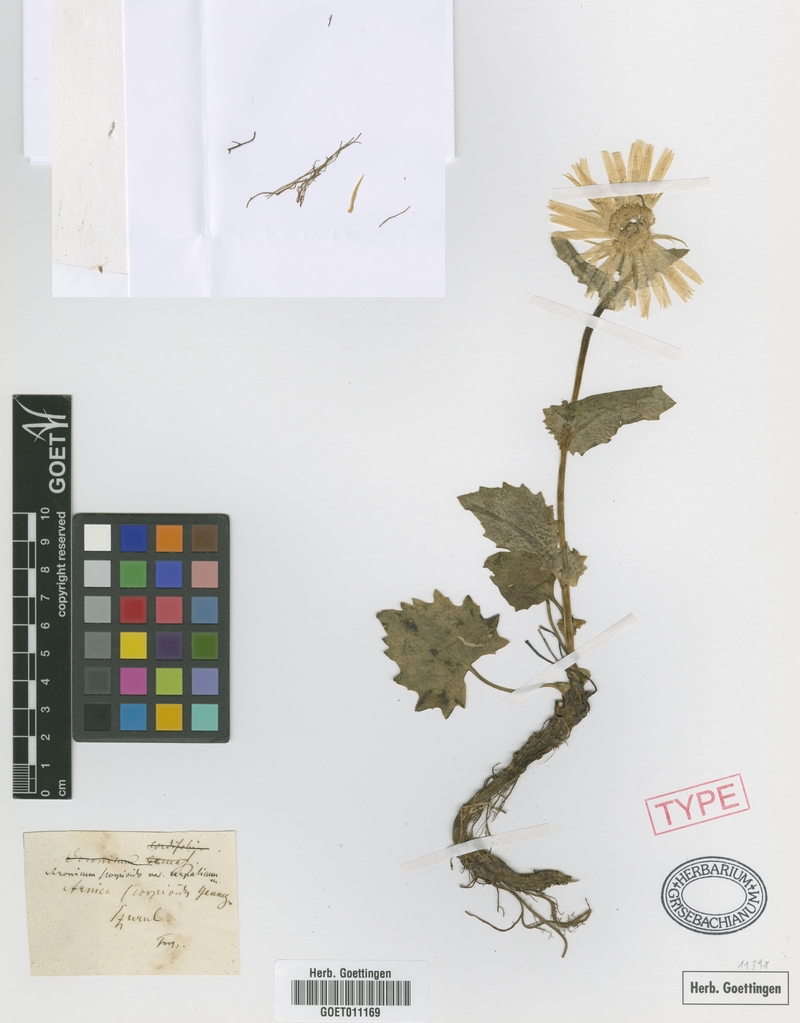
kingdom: Plantae
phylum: Tracheophyta
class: Magnoliopsida
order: Asterales
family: Asteraceae
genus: Doronicum
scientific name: Doronicum carpaticum
